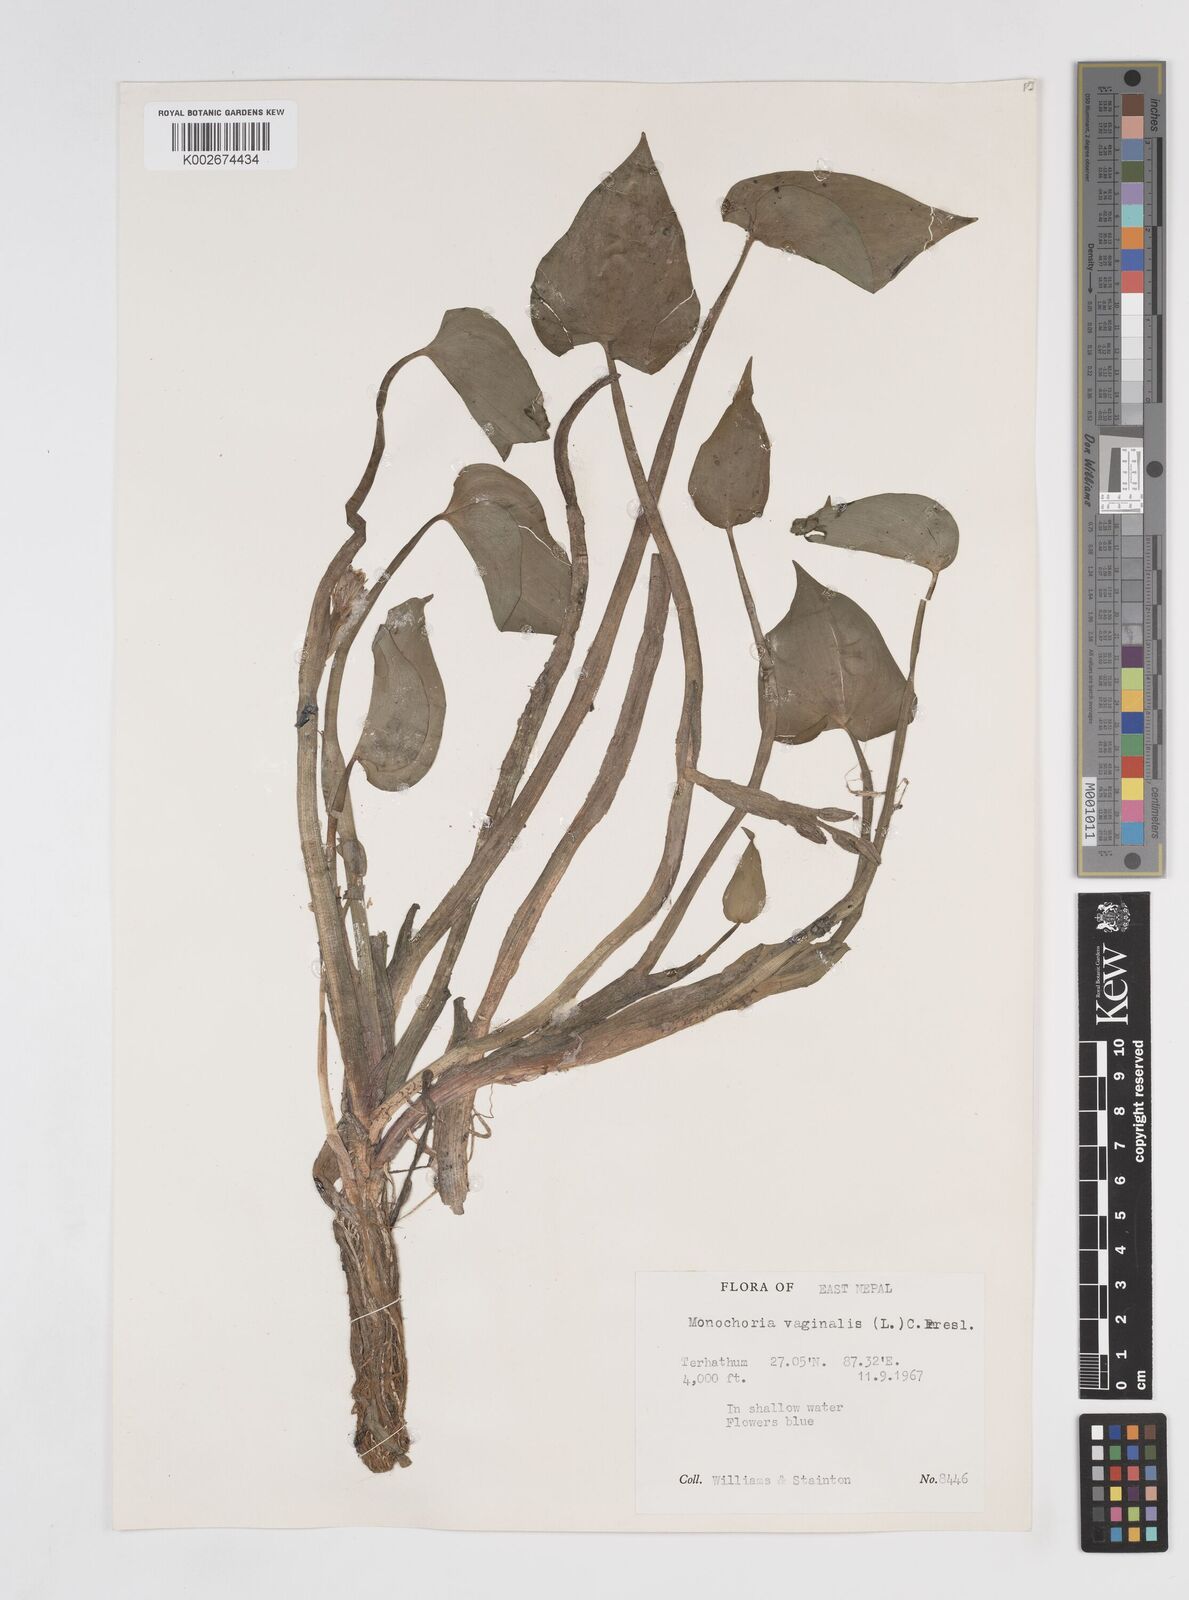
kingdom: Plantae
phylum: Tracheophyta
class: Liliopsida
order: Commelinales
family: Pontederiaceae
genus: Pontederia
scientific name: Pontederia vaginalis
